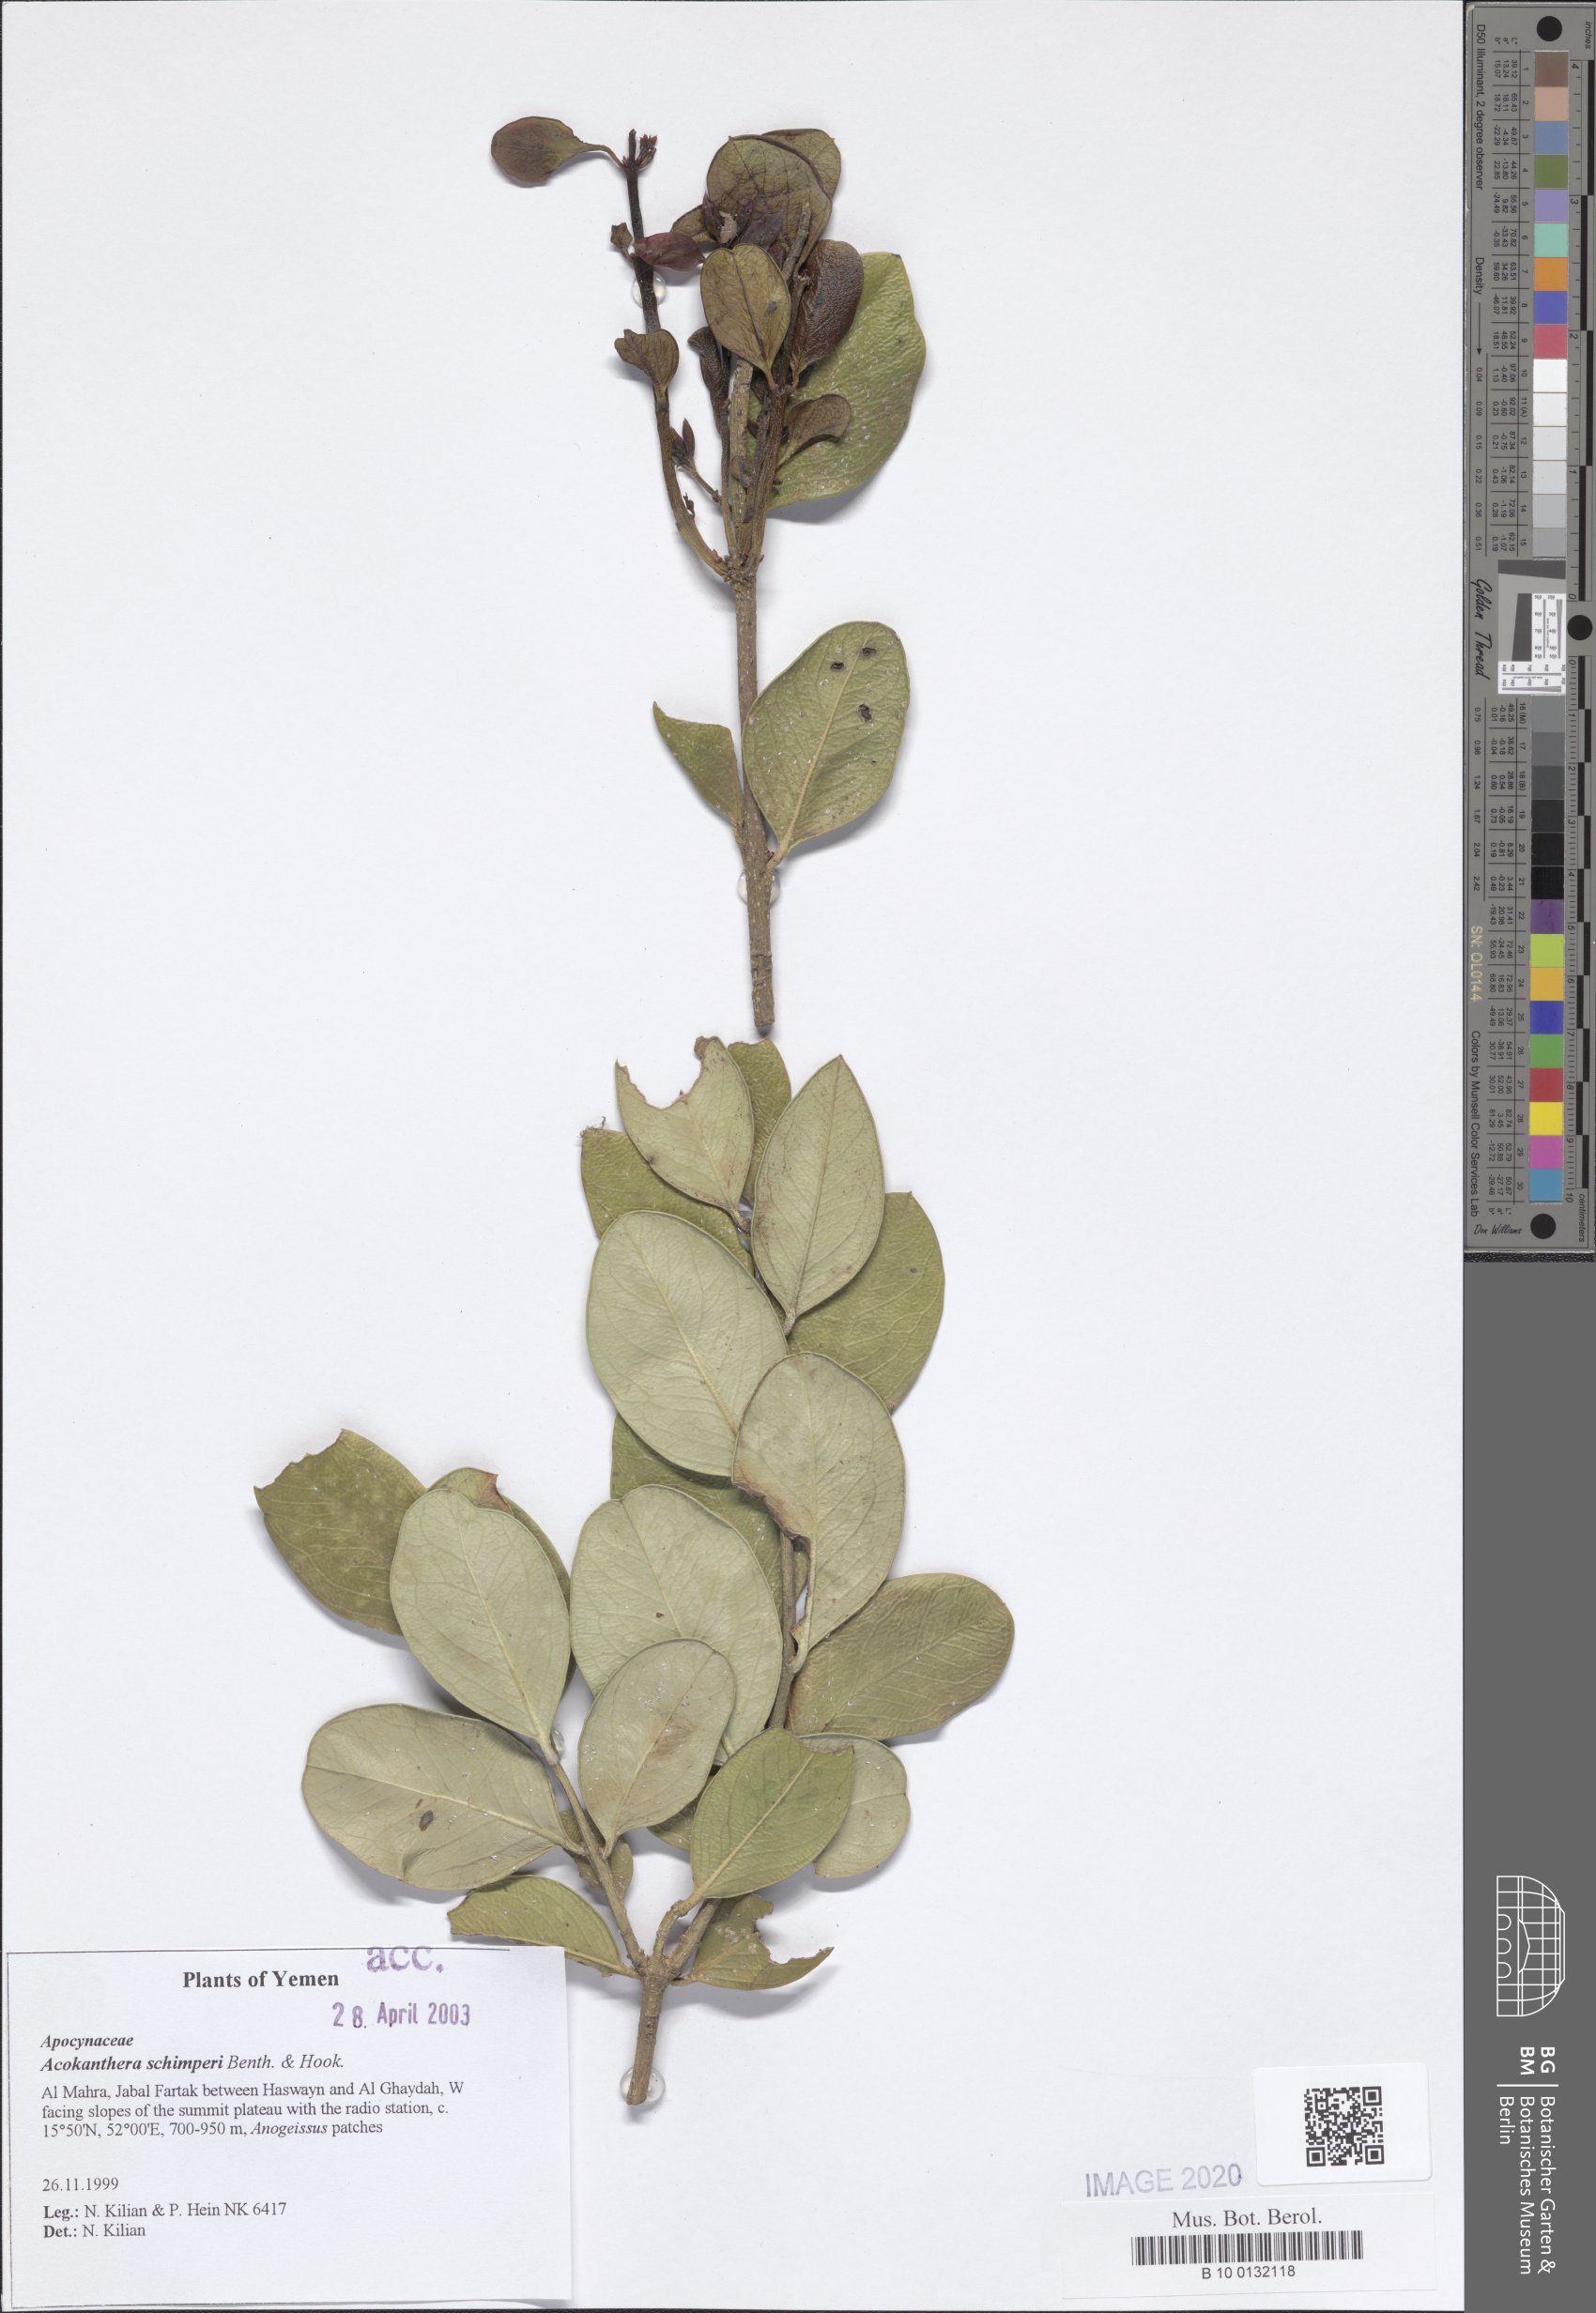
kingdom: Plantae
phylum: Tracheophyta
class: Magnoliopsida
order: Gentianales
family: Apocynaceae
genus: Acokanthera
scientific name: Acokanthera schimperi
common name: Arrow-poison-tree
